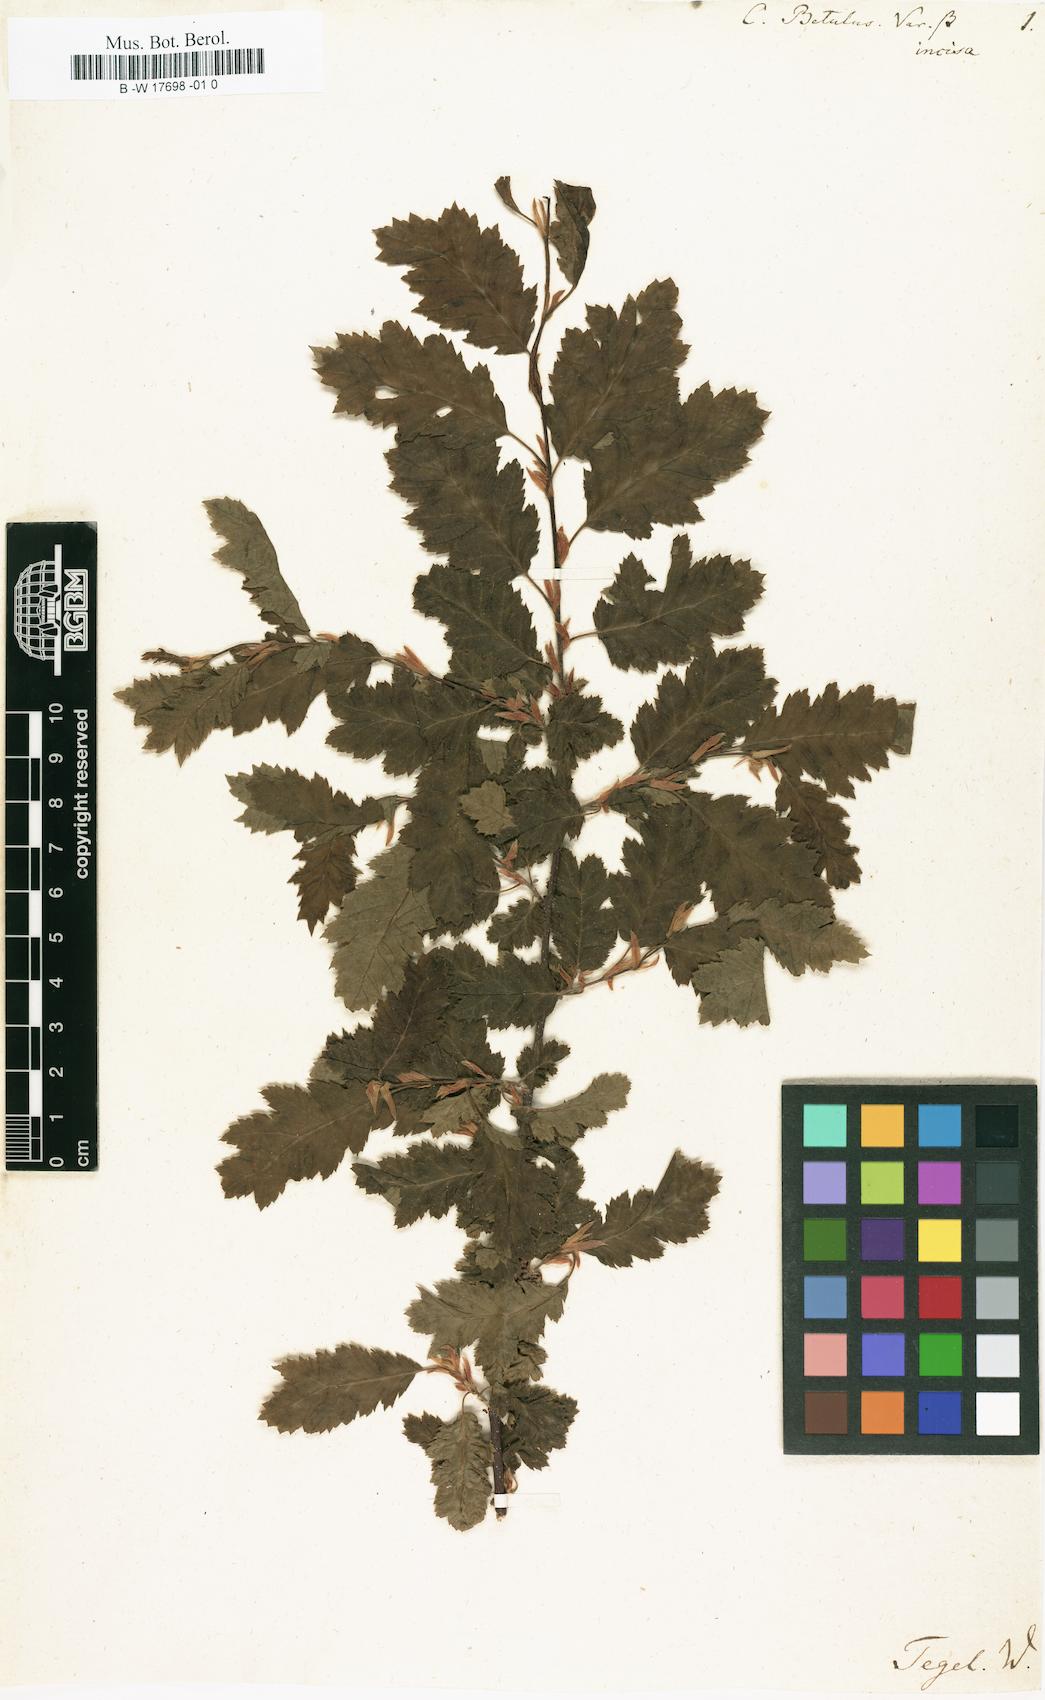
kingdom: Plantae
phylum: Tracheophyta
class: Magnoliopsida
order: Fagales
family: Betulaceae
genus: Carpinus
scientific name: Carpinus betulus
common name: Hornbeam
